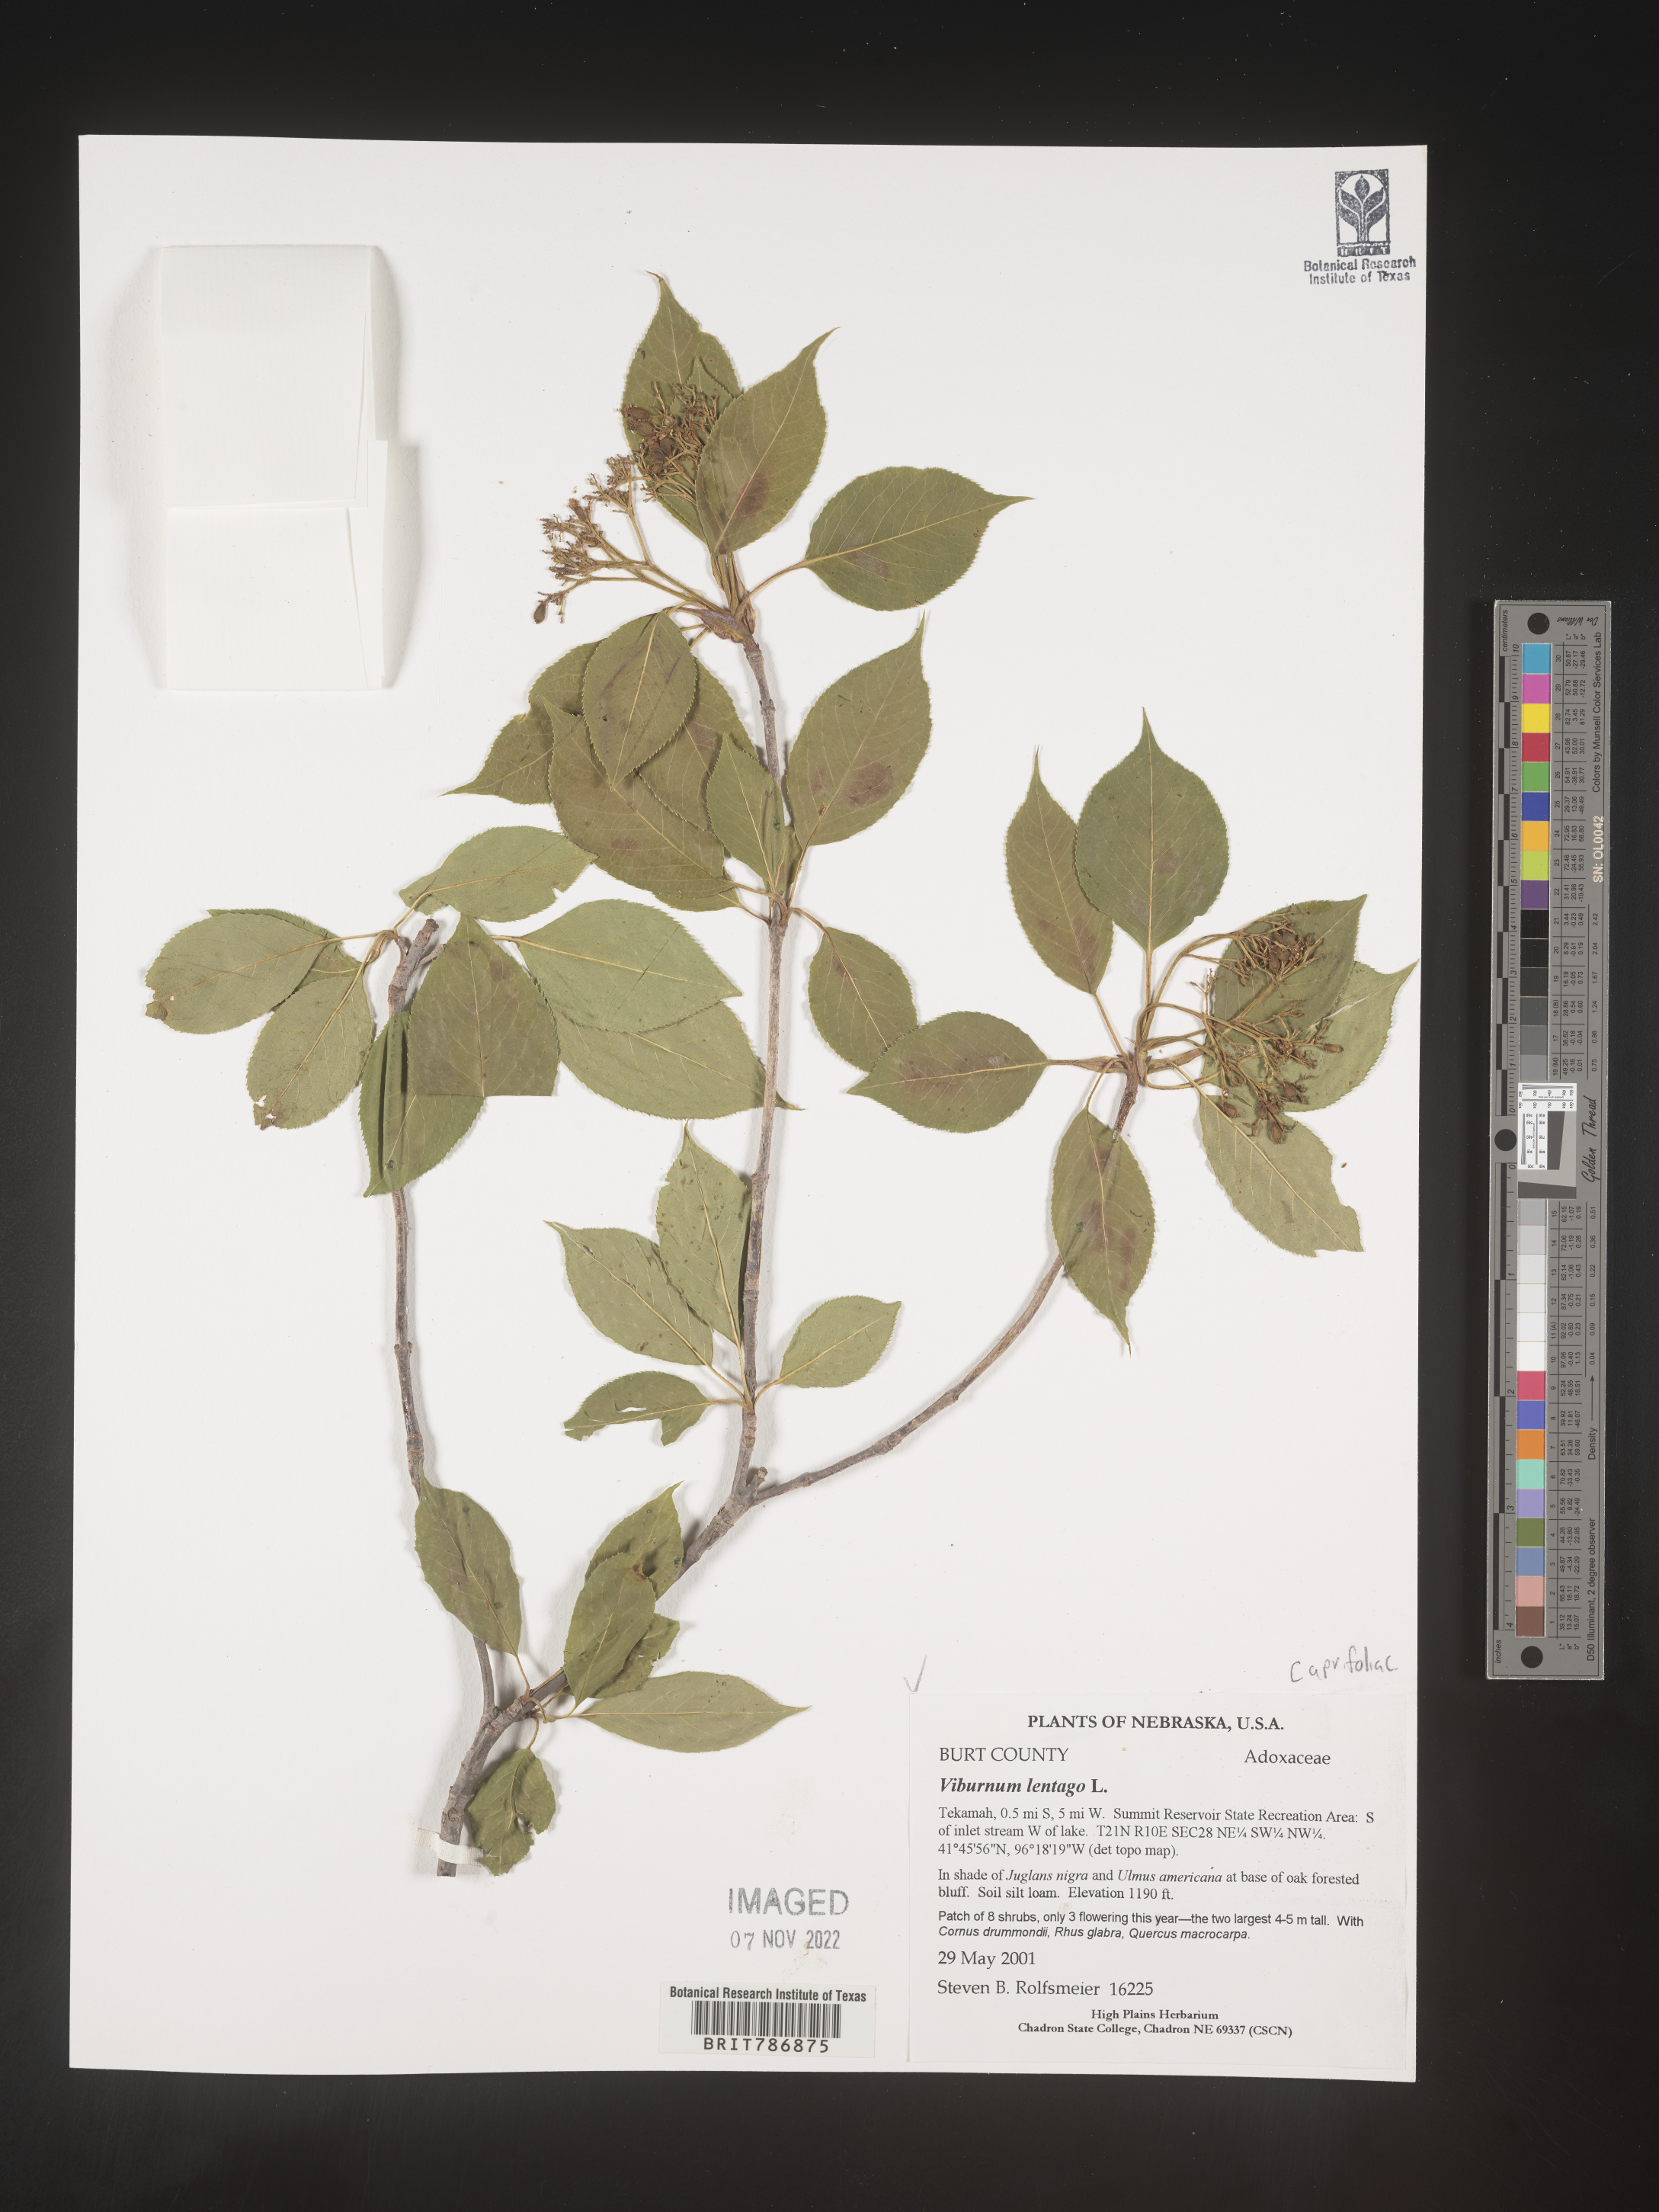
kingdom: Plantae
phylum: Tracheophyta
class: Magnoliopsida
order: Dipsacales
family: Viburnaceae
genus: Viburnum
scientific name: Viburnum lentago
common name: Black haw
